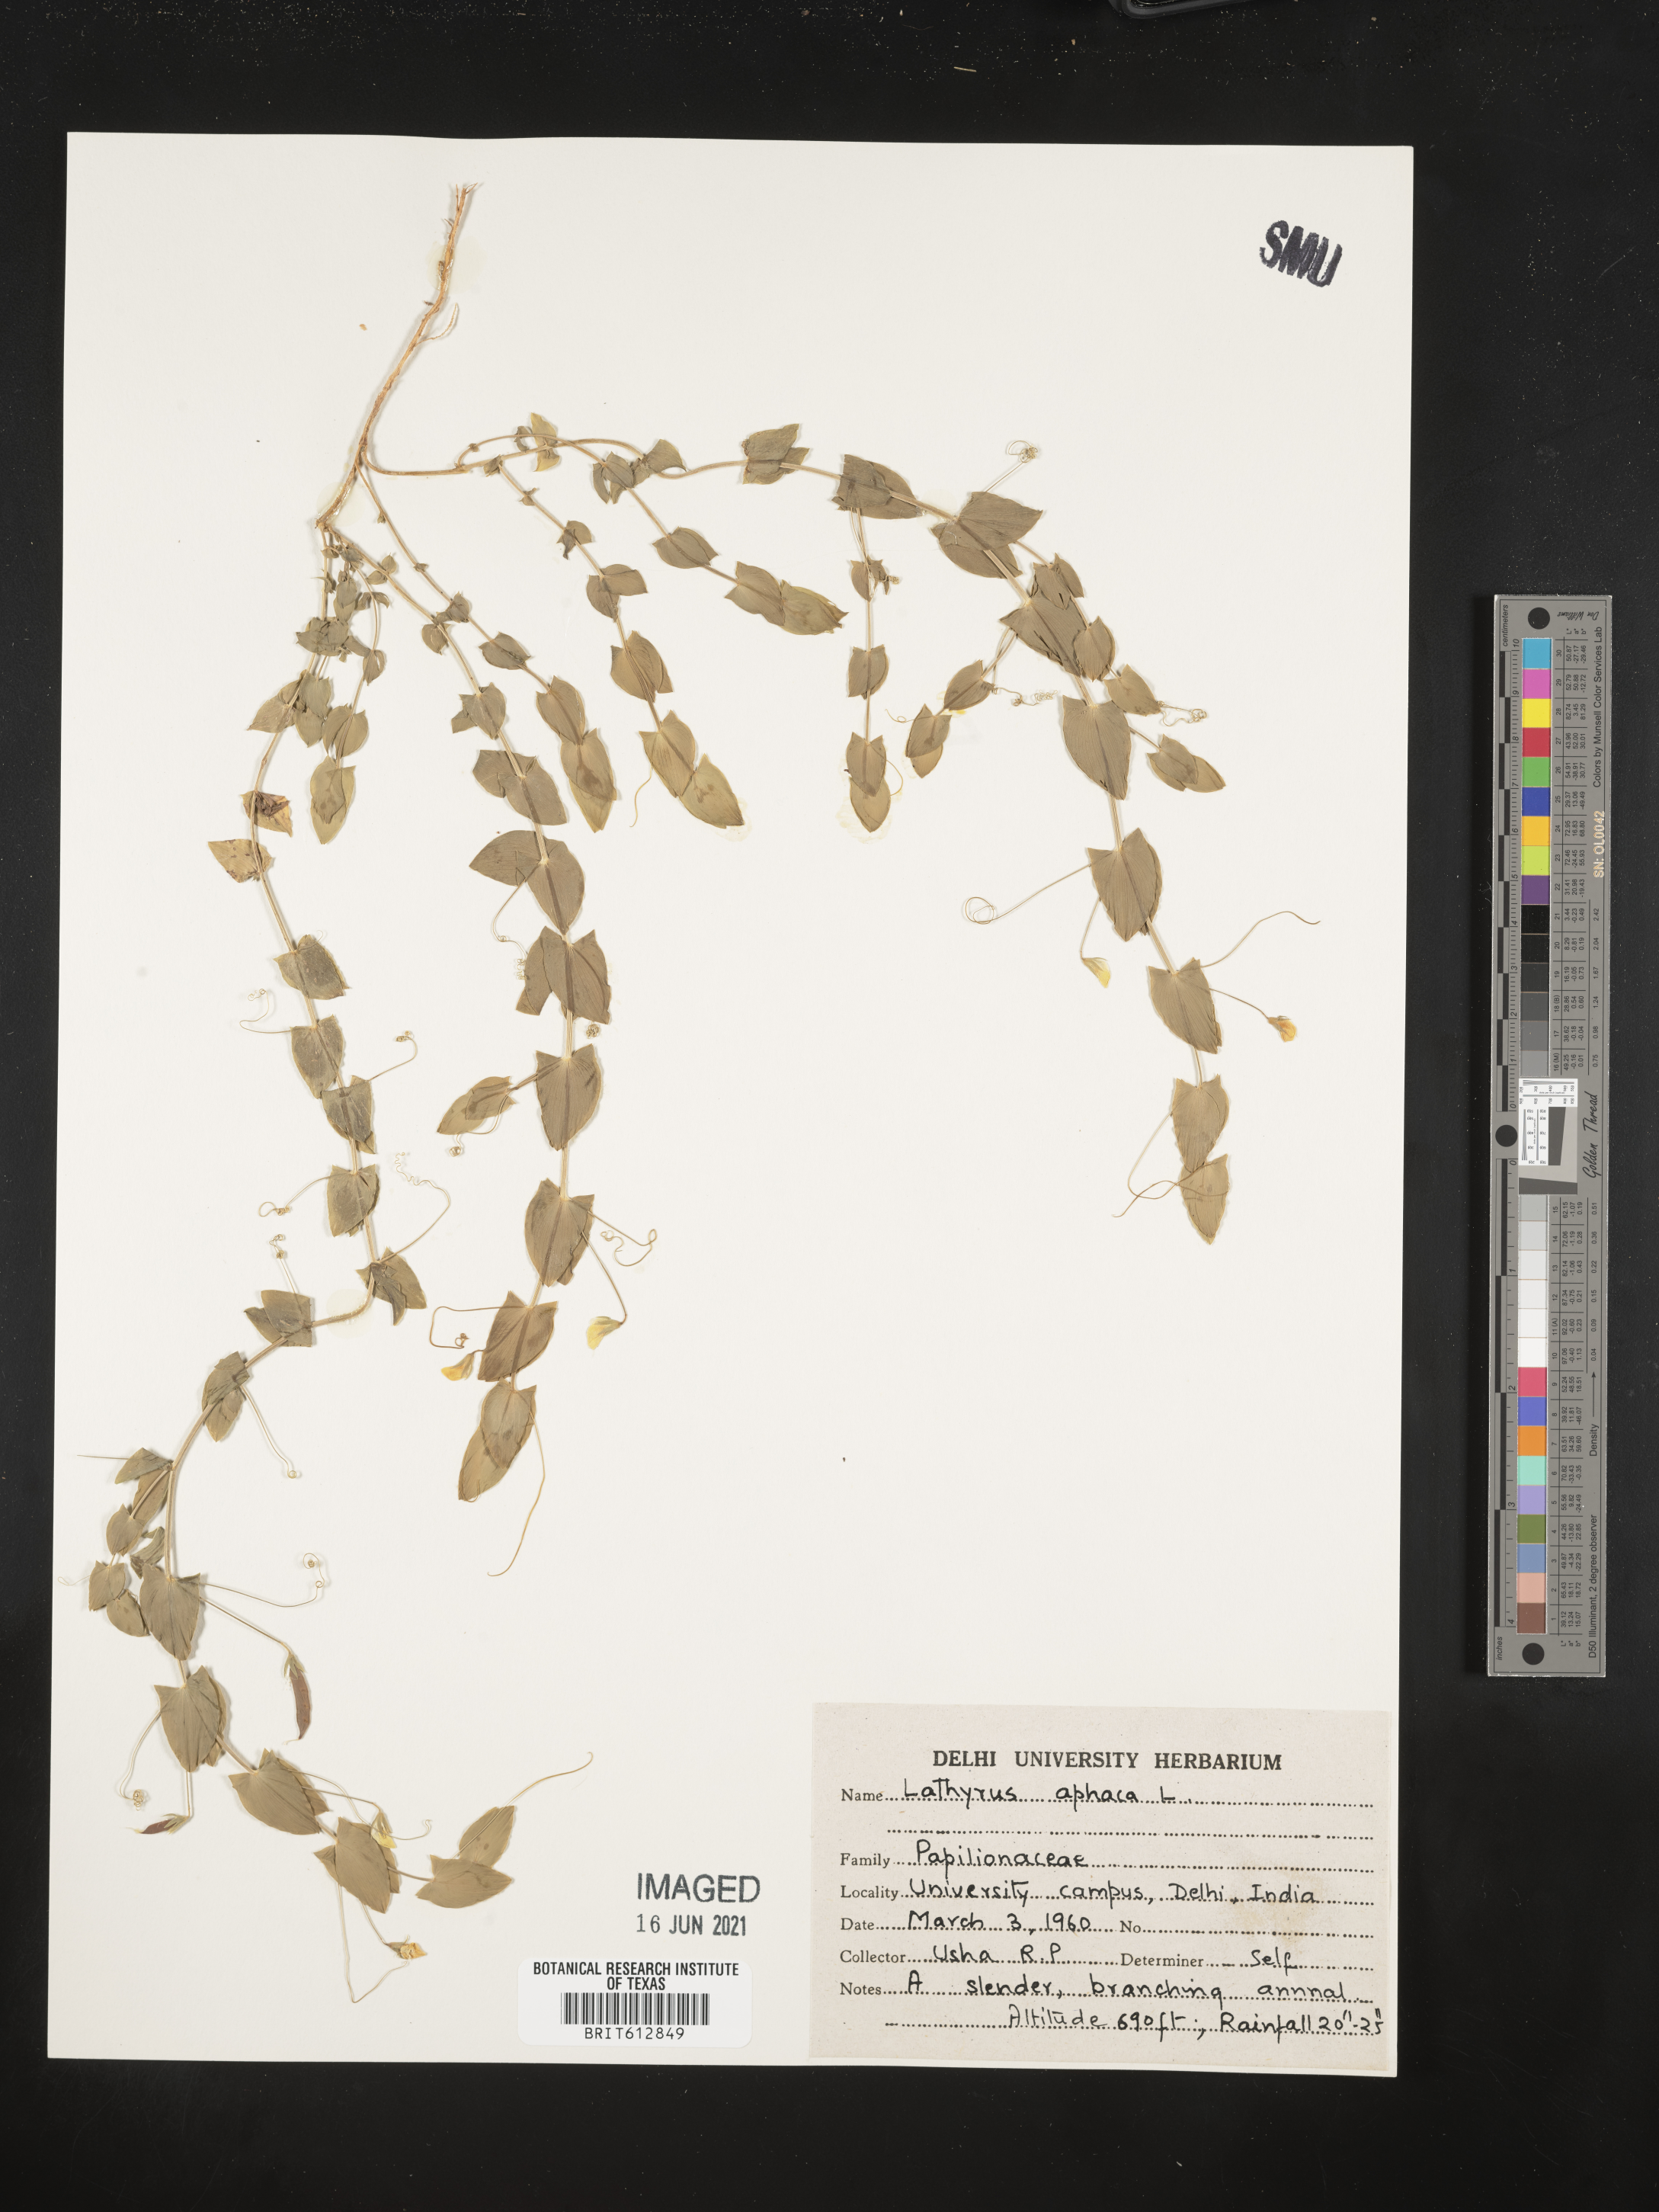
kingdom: Plantae
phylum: Tracheophyta
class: Magnoliopsida
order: Fabales
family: Fabaceae
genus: Lathyrus
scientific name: Lathyrus aphaca
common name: Yellow vetchling
